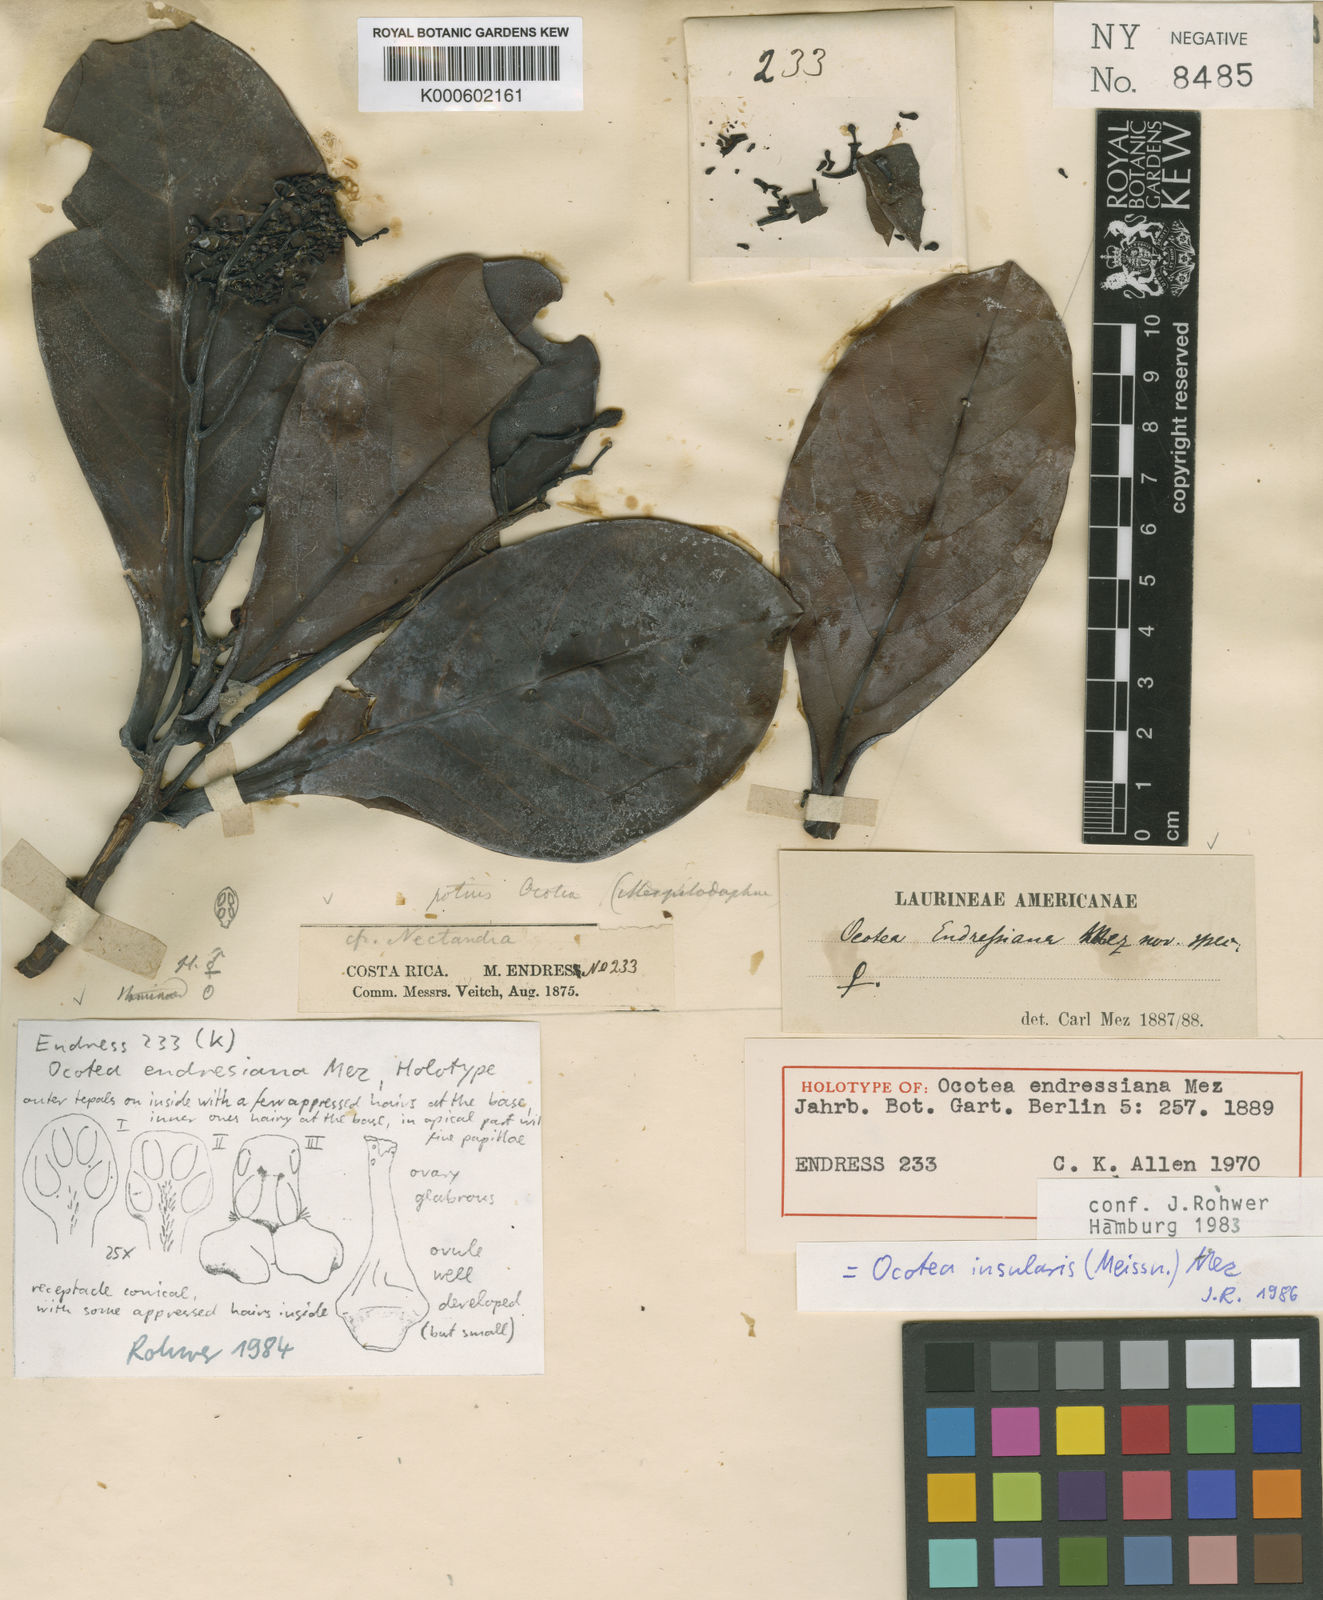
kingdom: Plantae
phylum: Tracheophyta
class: Magnoliopsida
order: Laurales
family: Lauraceae
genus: Ocotea
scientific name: Ocotea endresiana
